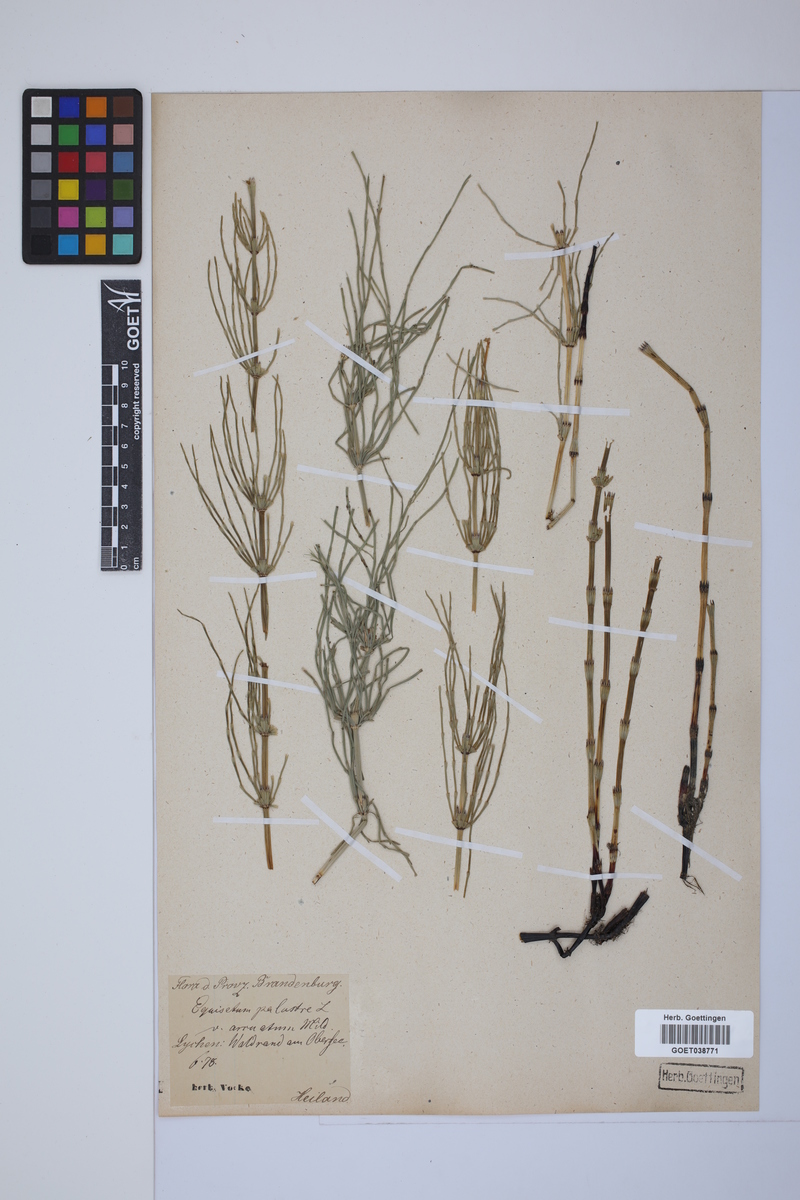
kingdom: Plantae
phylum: Tracheophyta
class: Polypodiopsida
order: Equisetales
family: Equisetaceae
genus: Equisetum
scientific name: Equisetum palustre
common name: Marsh horsetail
